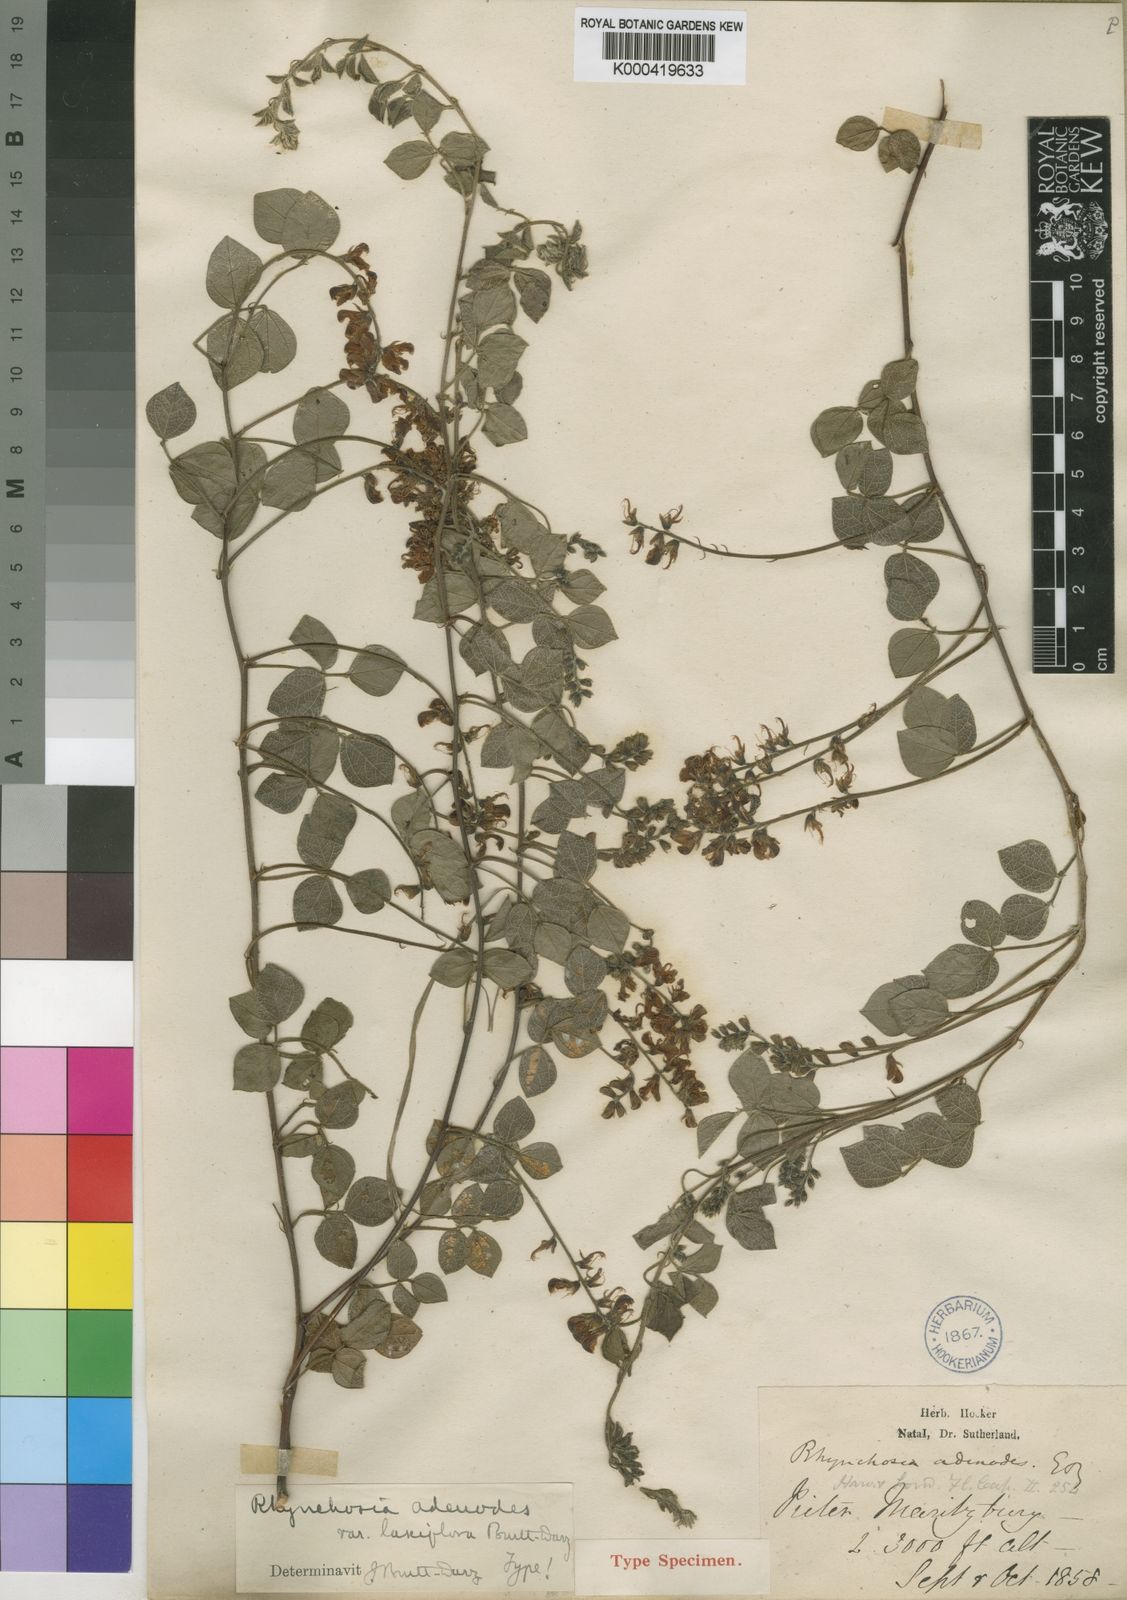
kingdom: Plantae
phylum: Tracheophyta
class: Magnoliopsida
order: Fabales
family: Fabaceae
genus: Rhynchosia
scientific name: Rhynchosia adenodes
